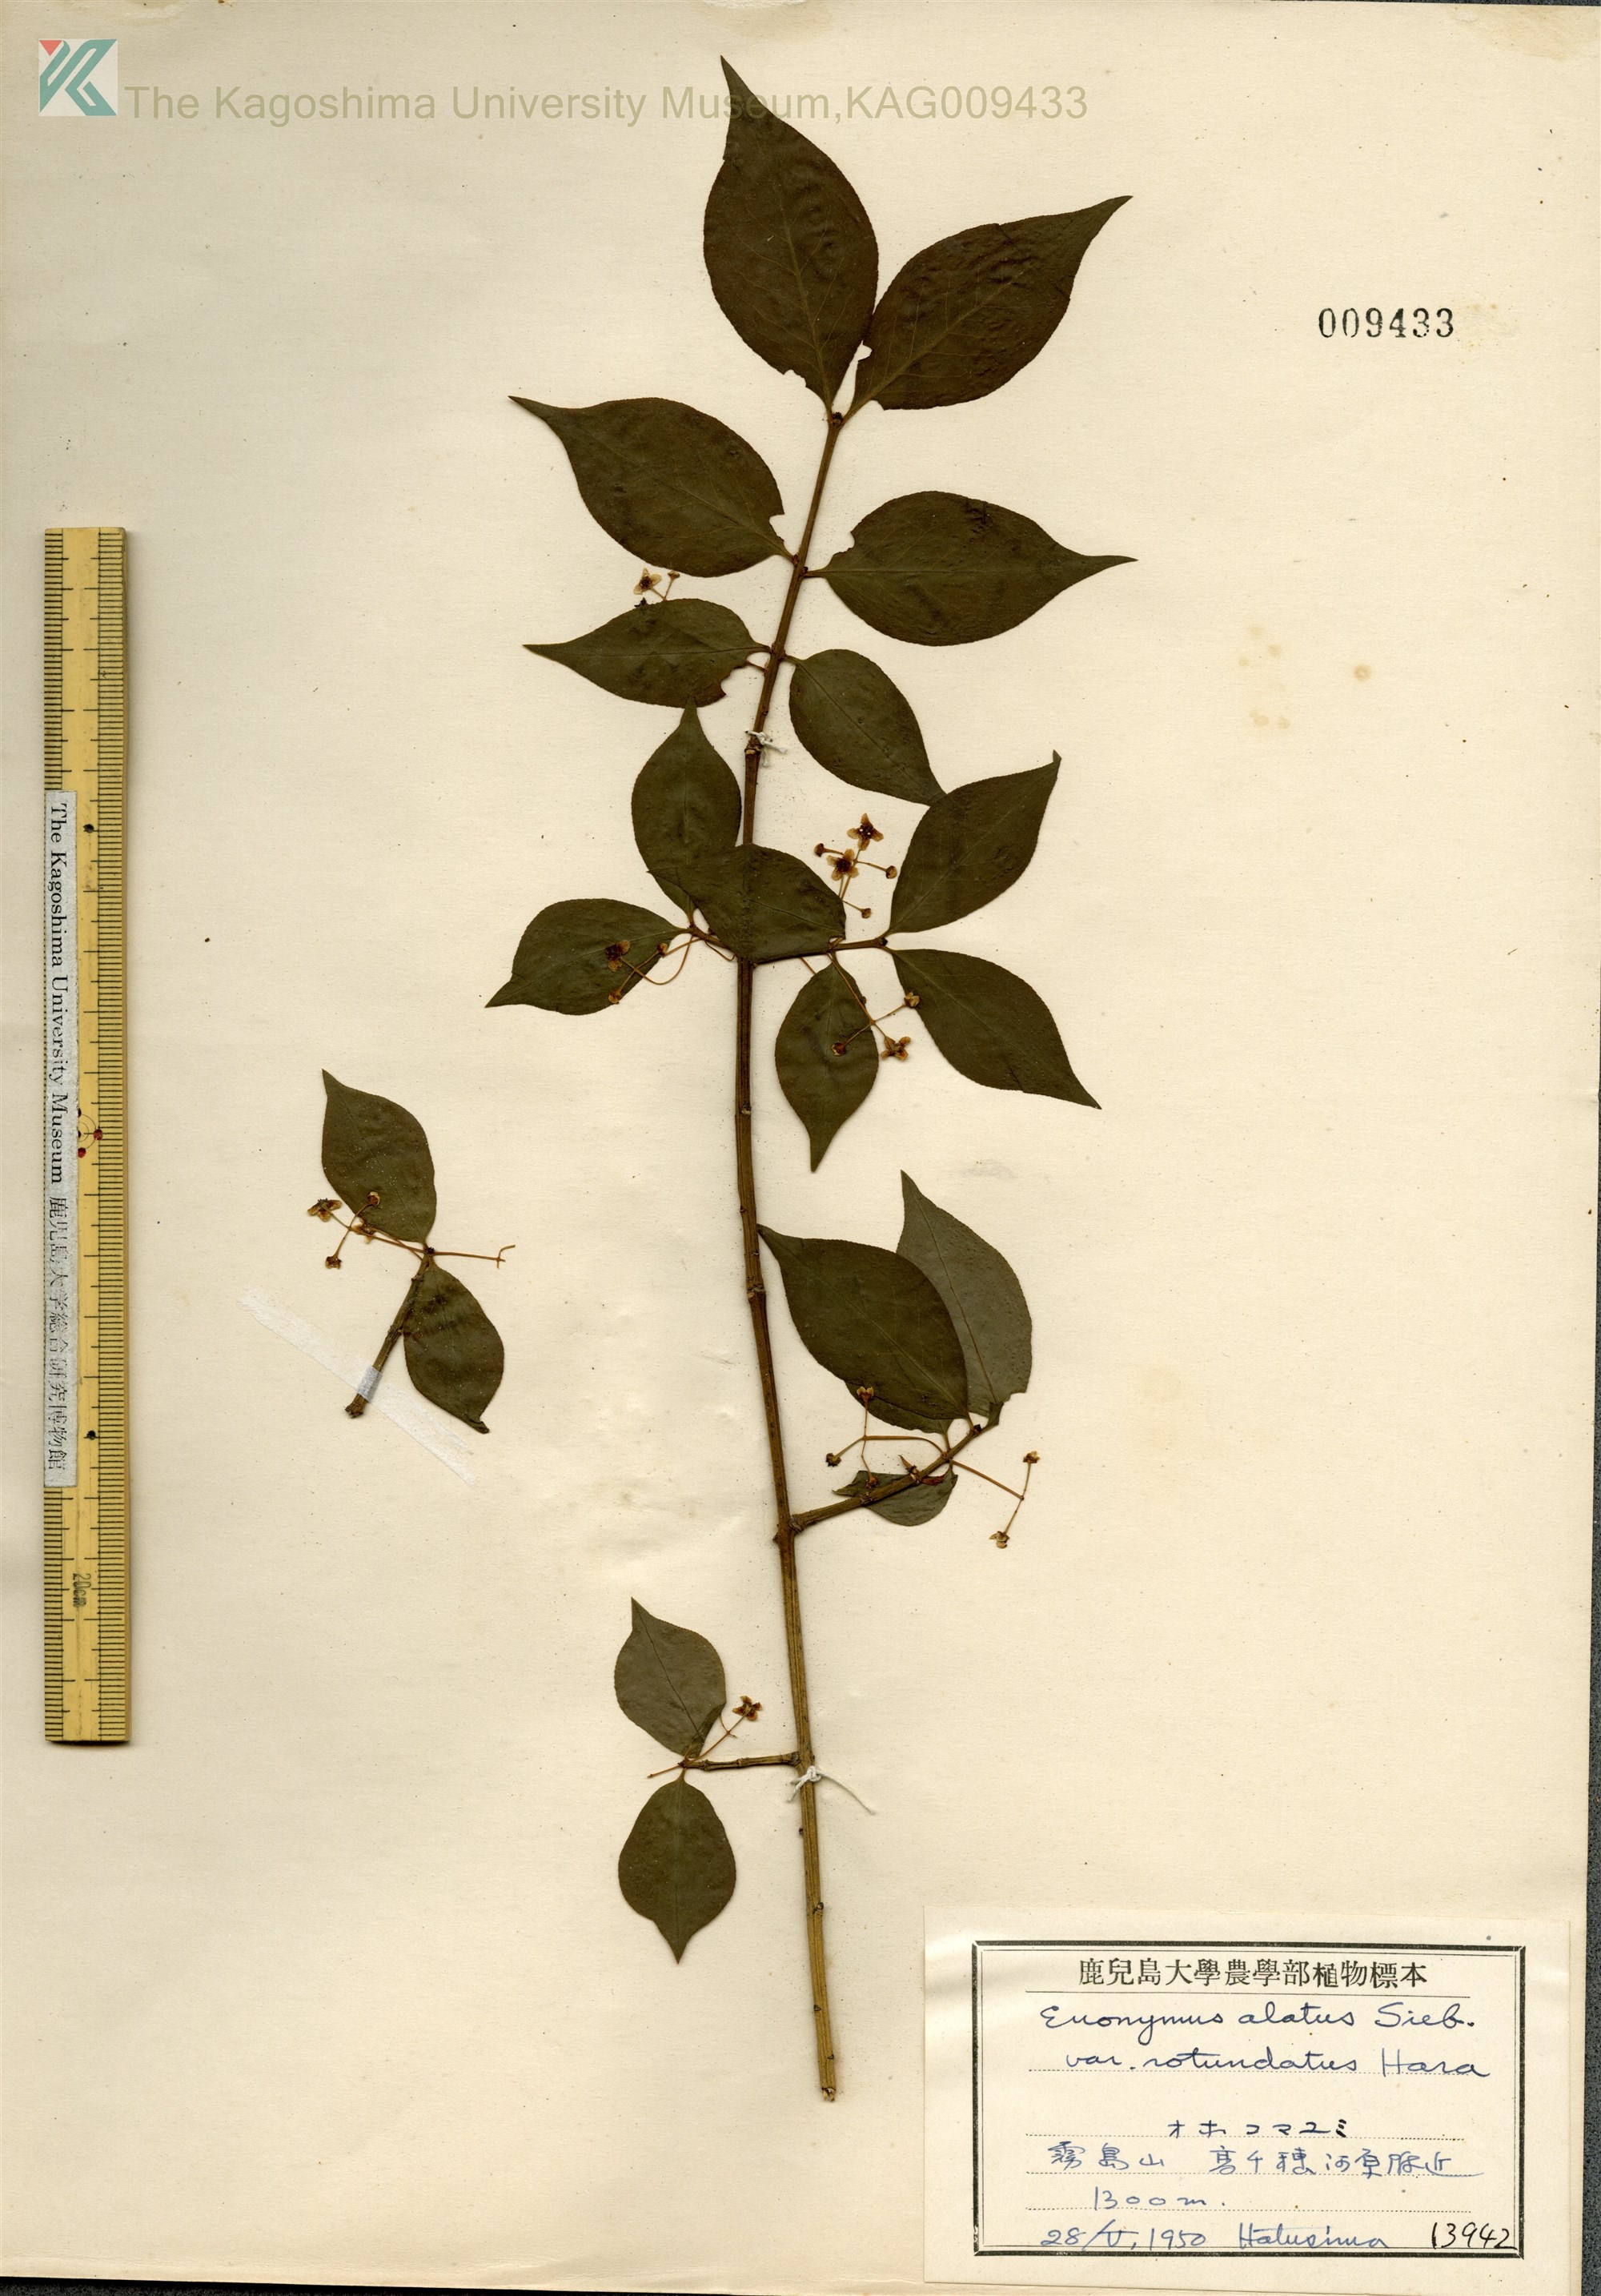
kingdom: Plantae
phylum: Tracheophyta
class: Magnoliopsida
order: Celastrales
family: Celastraceae
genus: Euonymus
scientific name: Euonymus alatus
